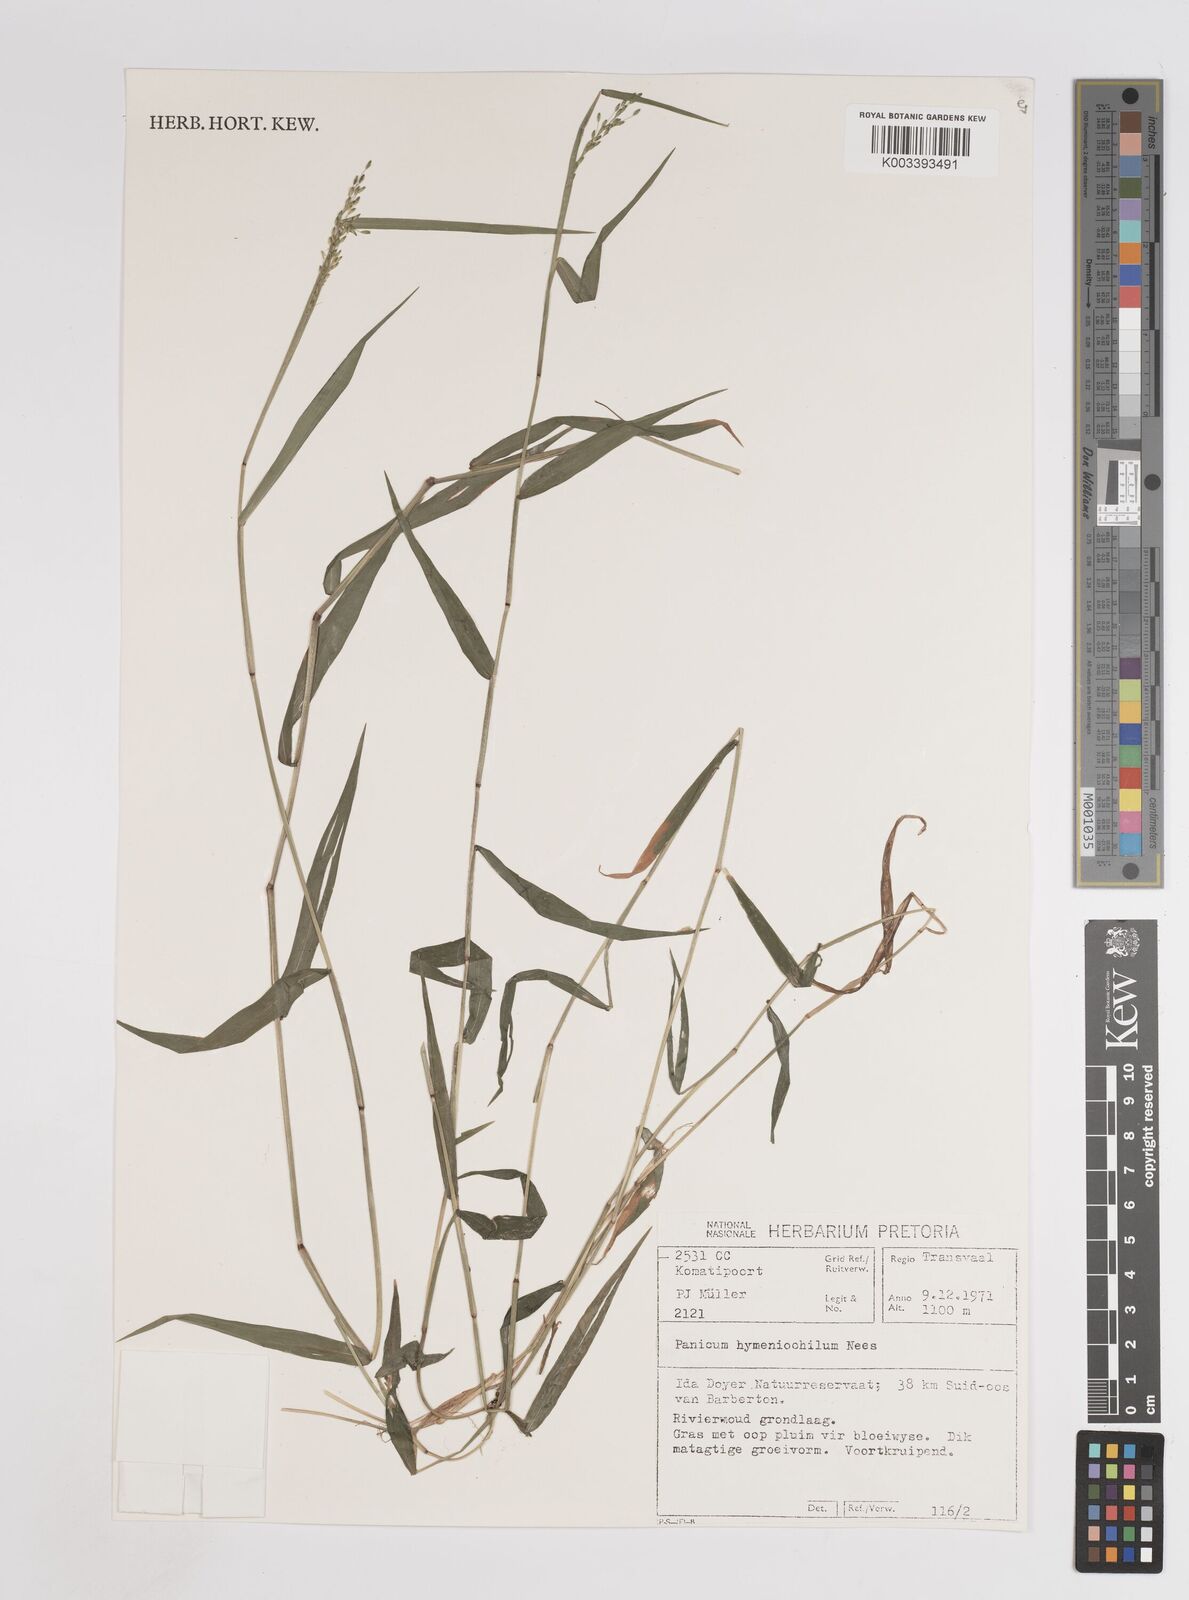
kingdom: Plantae
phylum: Tracheophyta
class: Liliopsida
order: Poales
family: Poaceae
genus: Adenochloa
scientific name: Adenochloa hymeniochila
